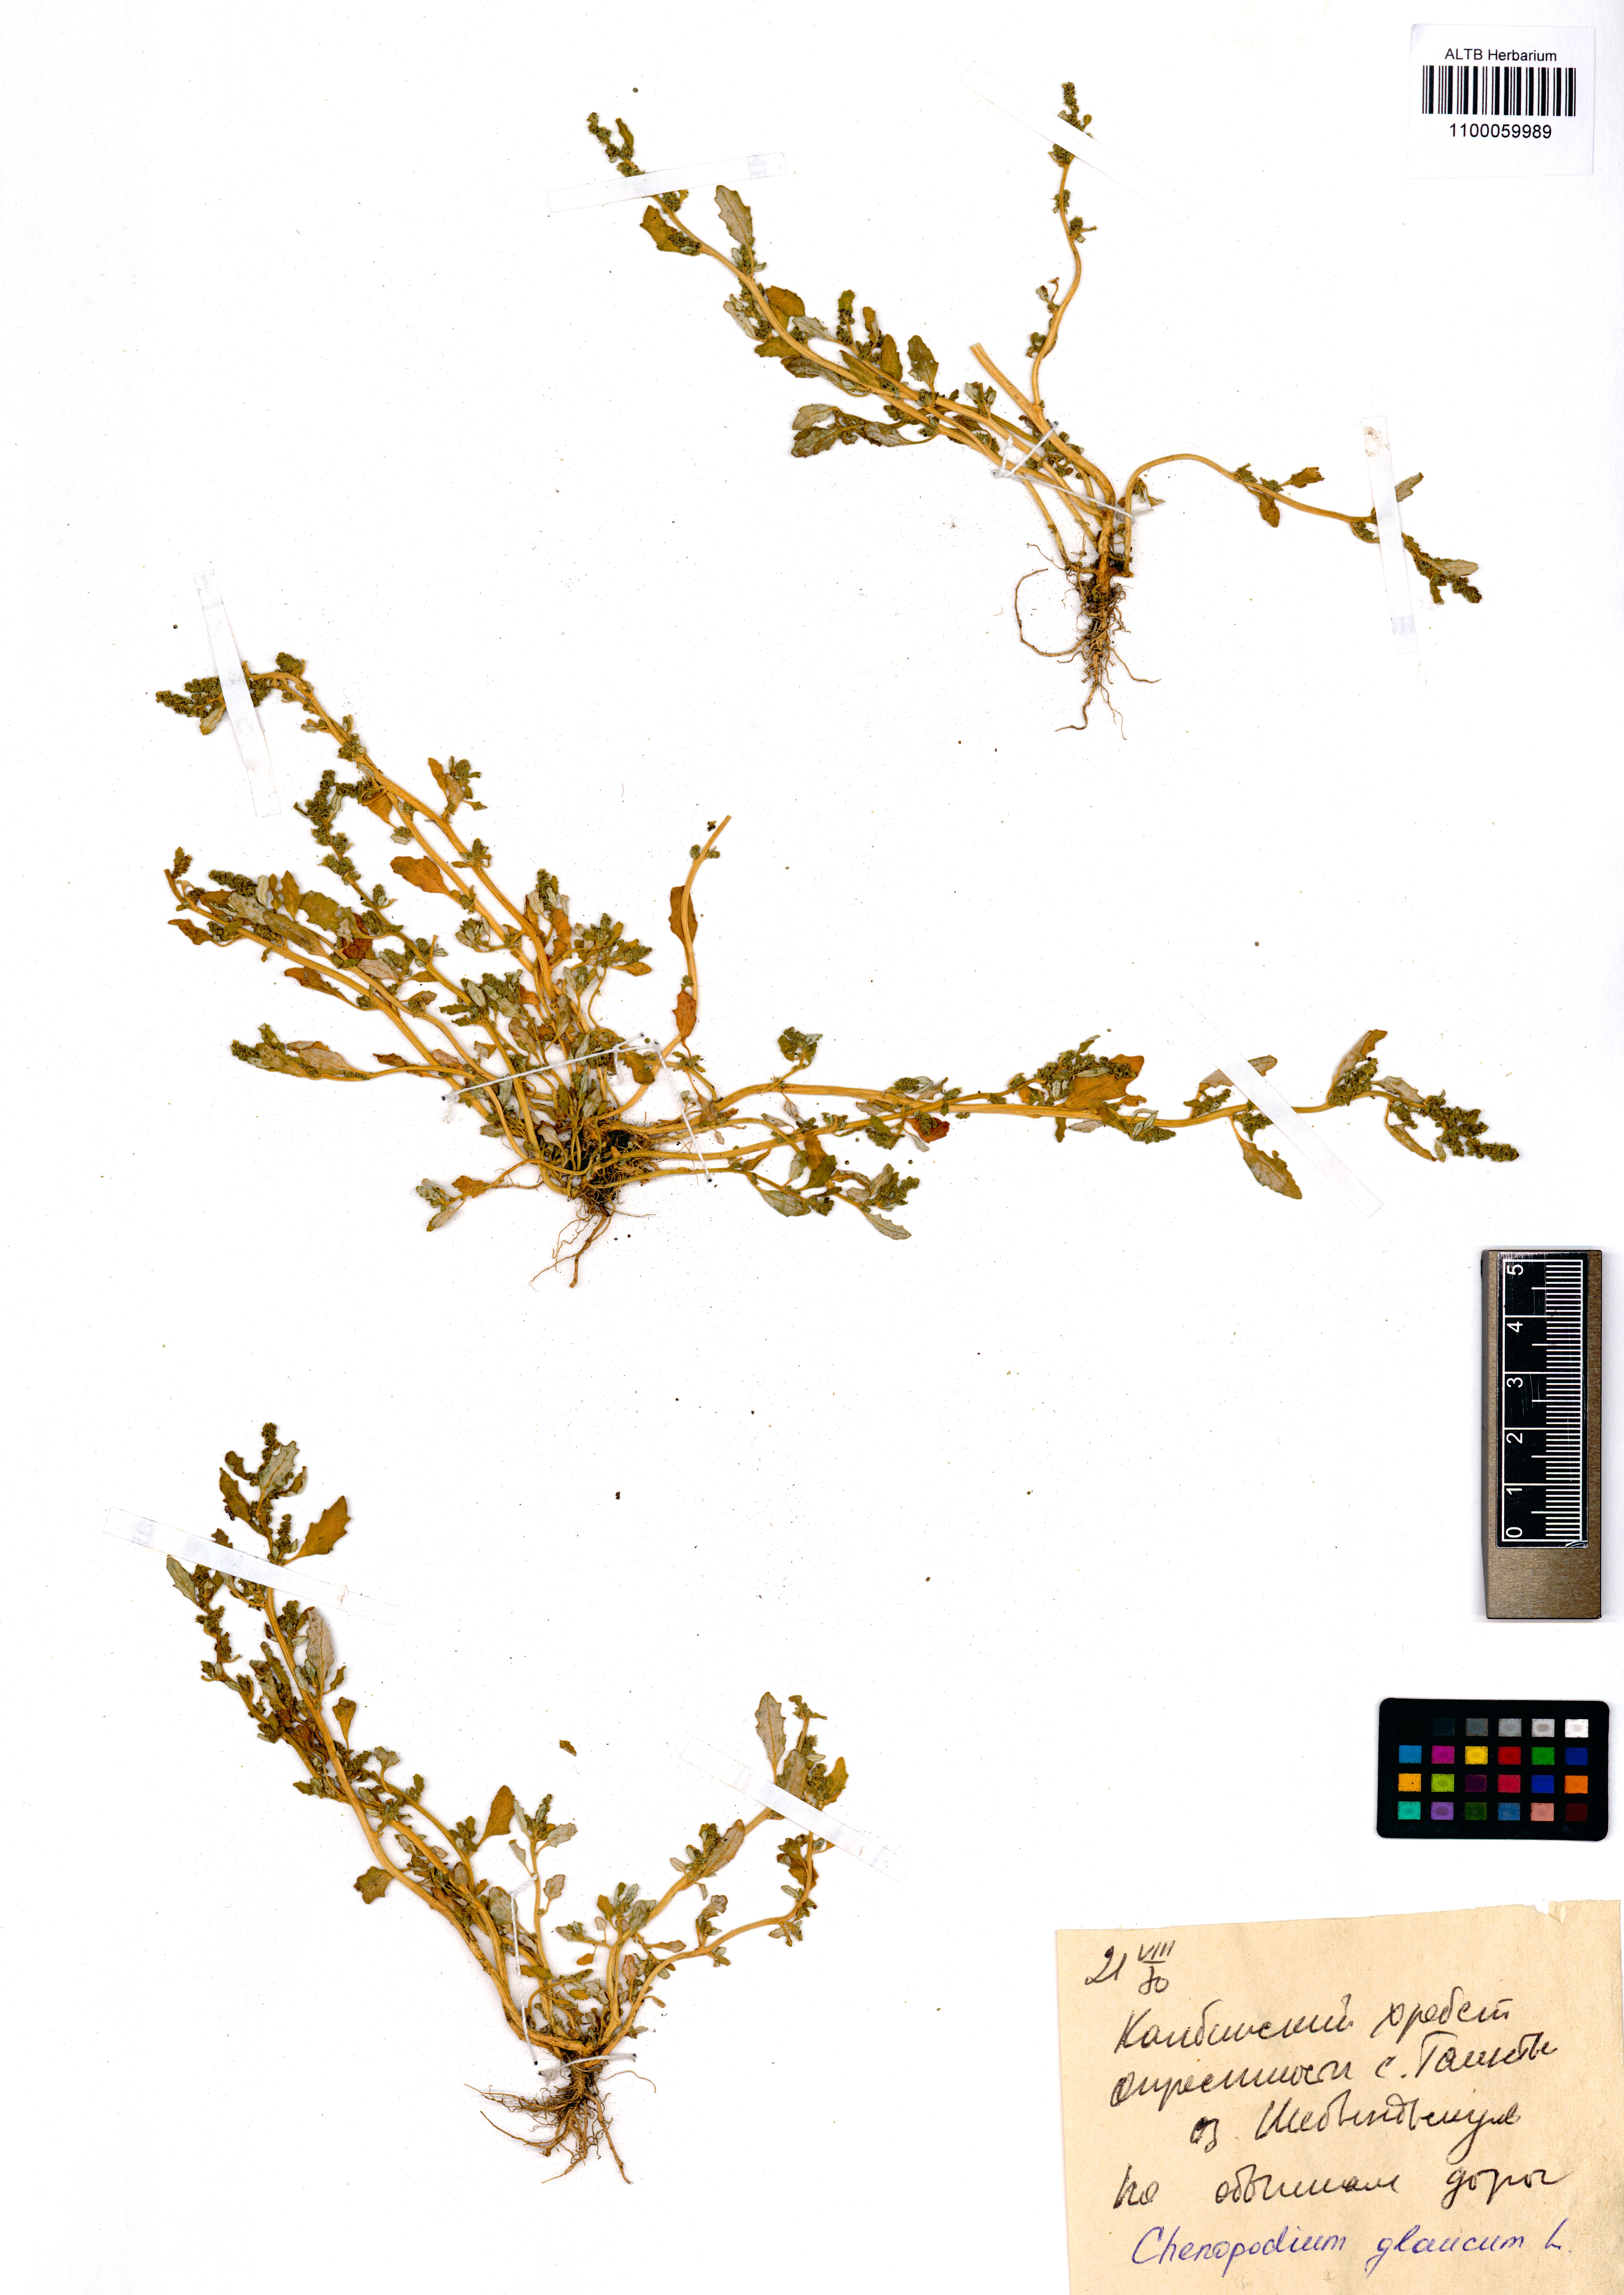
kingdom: Plantae
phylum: Tracheophyta
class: Magnoliopsida
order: Caryophyllales
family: Amaranthaceae
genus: Oxybasis
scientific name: Oxybasis glauca
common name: Glaucous goosefoot
